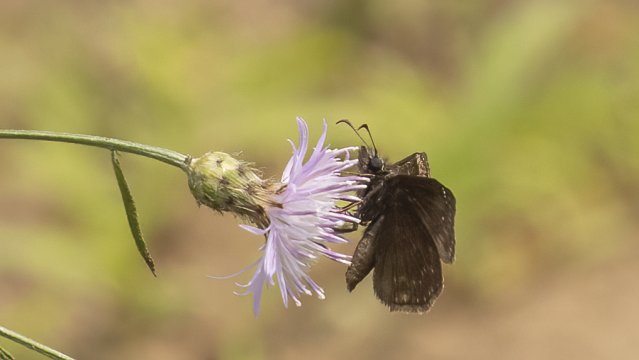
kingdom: Animalia
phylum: Arthropoda
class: Insecta
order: Lepidoptera
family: Hesperiidae
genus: Gesta
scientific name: Gesta
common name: Wild Indigo Duskywing
